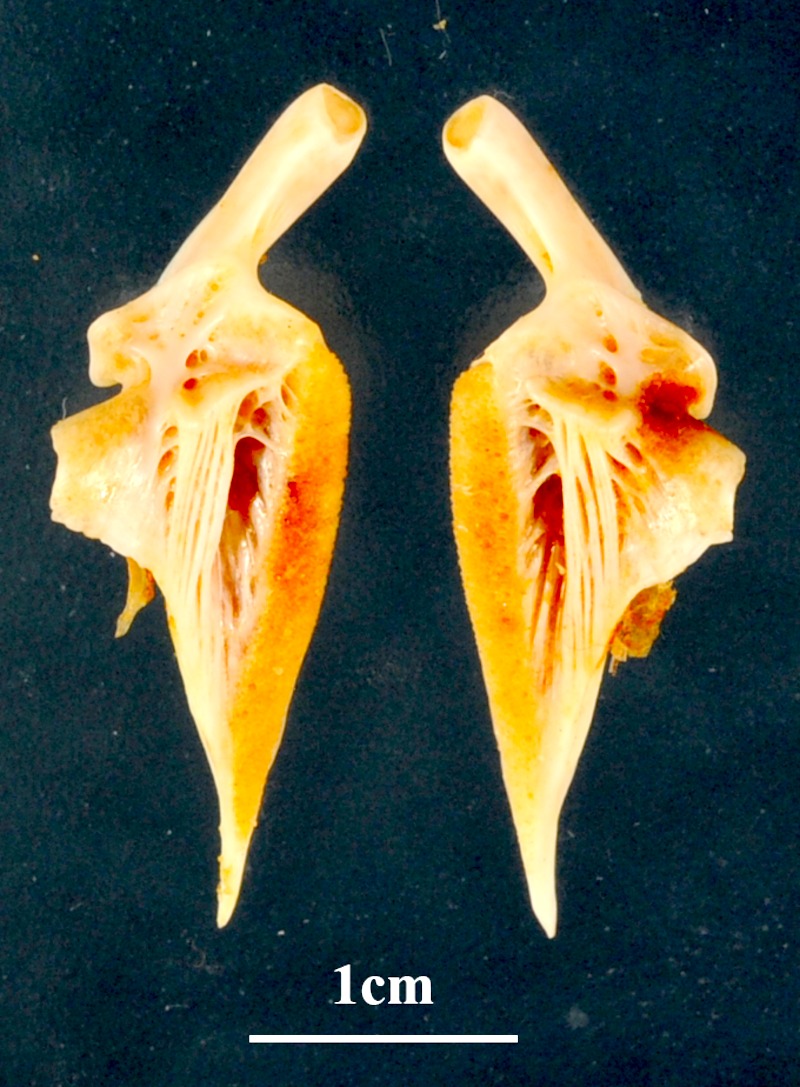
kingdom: Animalia
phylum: Chordata
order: Perciformes
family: Serranidae
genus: Epinephelus
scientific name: Epinephelus fasciatus
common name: Blacktip grouper
